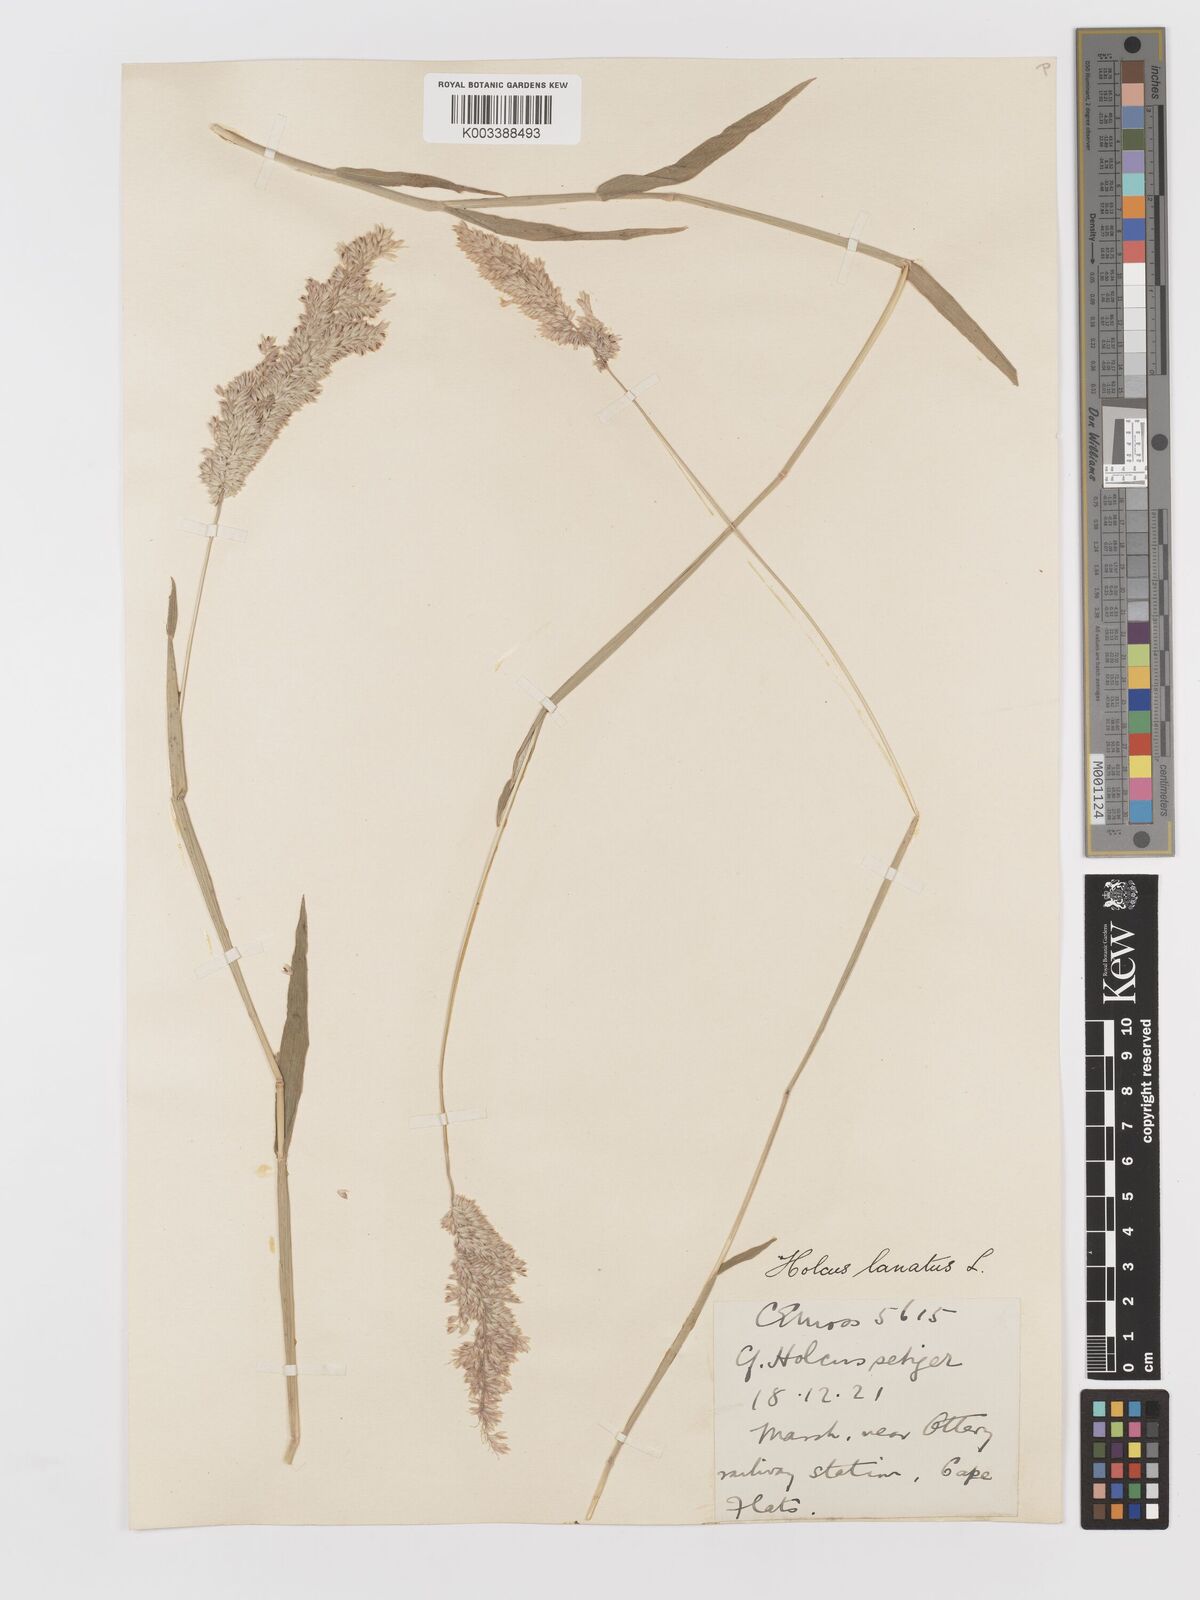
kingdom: Plantae
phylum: Tracheophyta
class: Liliopsida
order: Poales
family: Poaceae
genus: Holcus
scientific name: Holcus lanatus
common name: Yorkshire-fog
